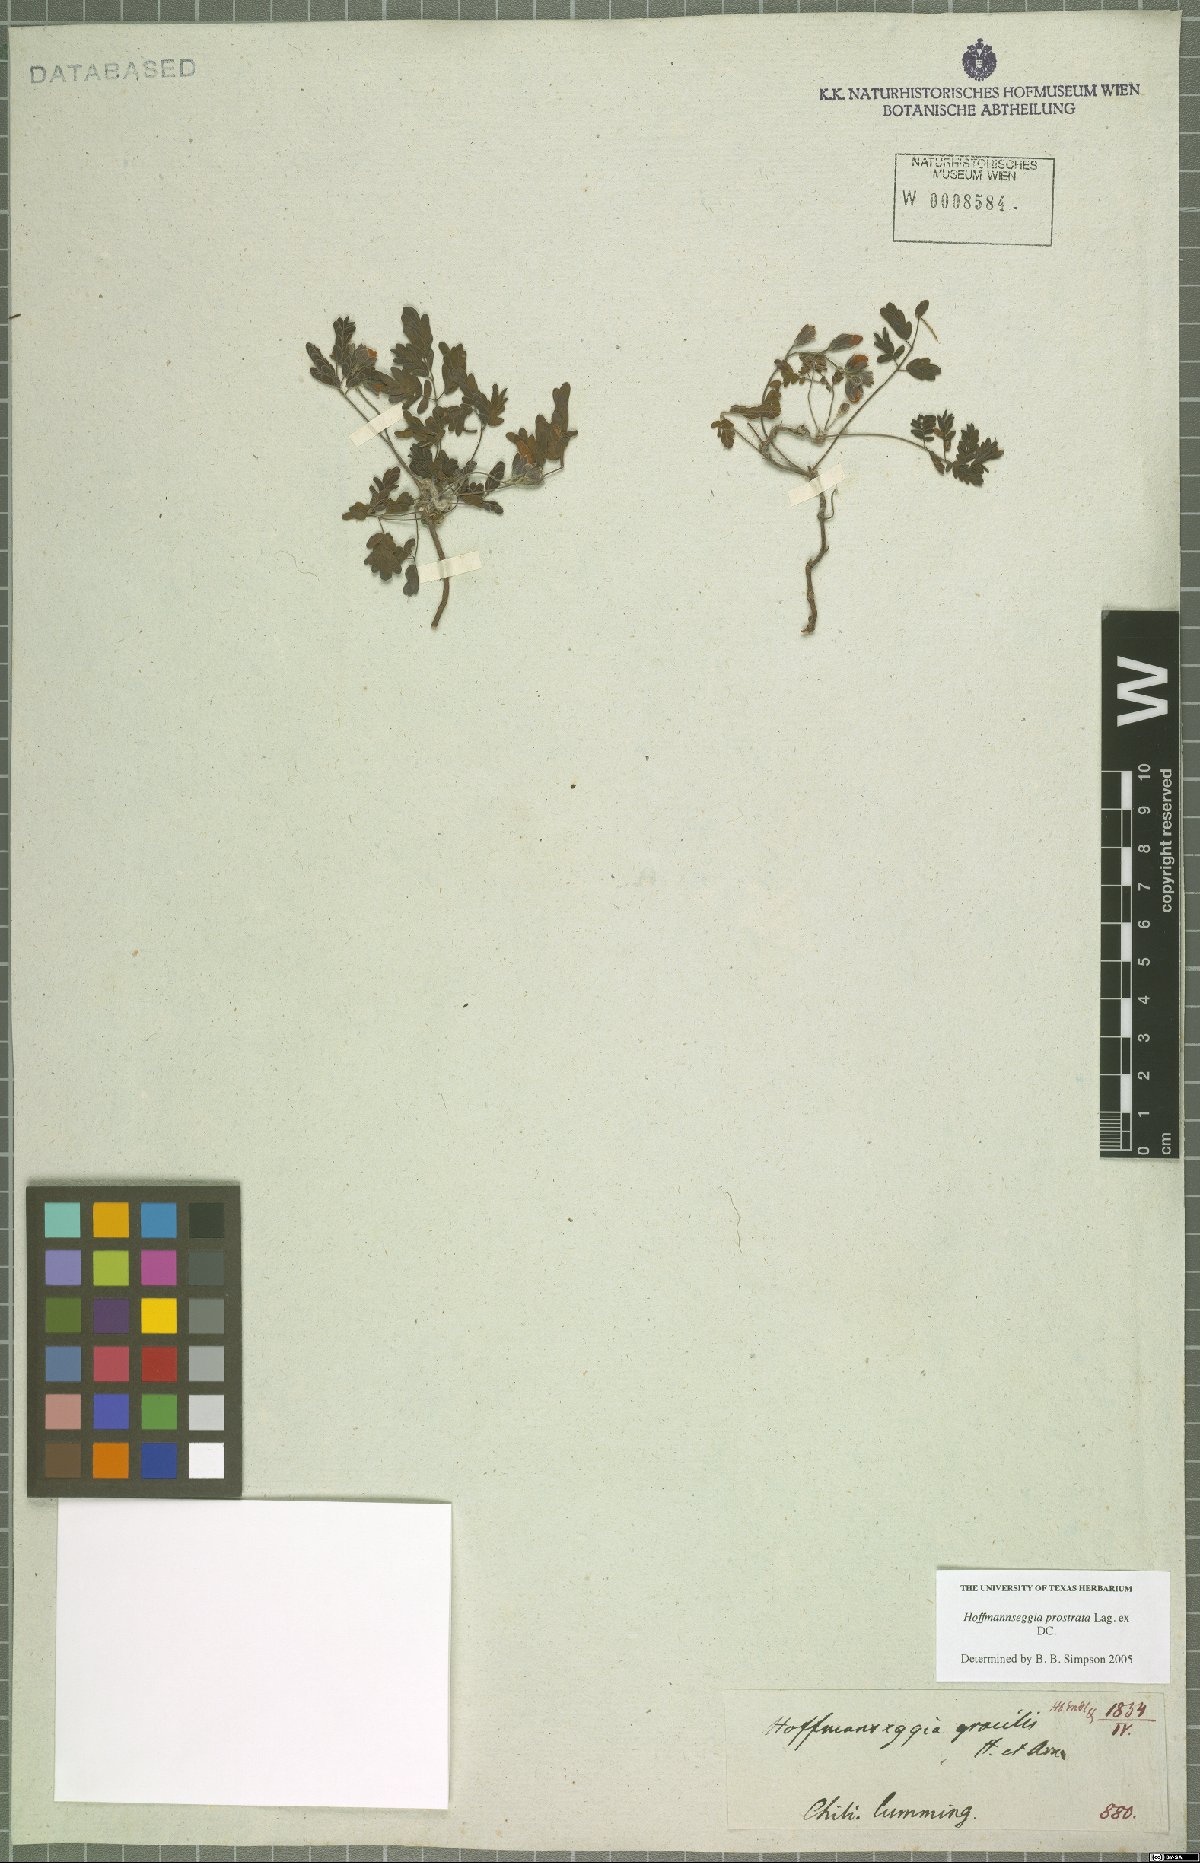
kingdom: Plantae
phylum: Tracheophyta
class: Magnoliopsida
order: Fabales
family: Fabaceae
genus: Hoffmannseggia
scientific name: Hoffmannseggia prostrata
